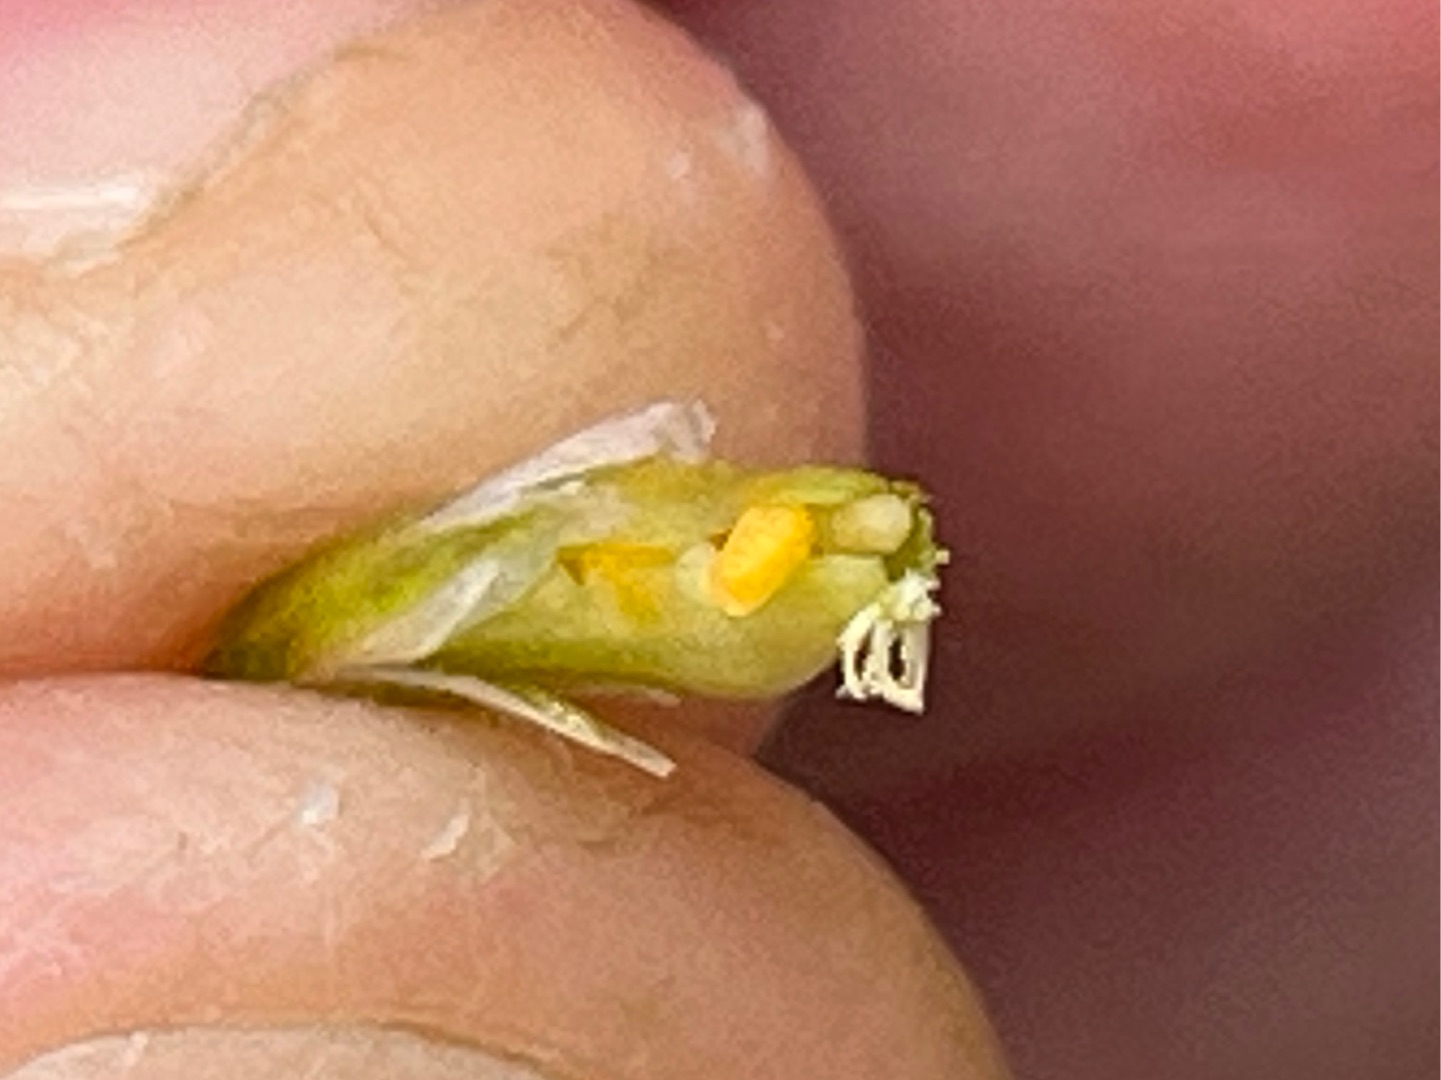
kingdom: Animalia
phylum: Arthropoda
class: Insecta
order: Diptera
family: Cecidomyiidae
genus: Dasineura
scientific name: Dasineura fructum
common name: Hørsetarmkapselgalmyg
